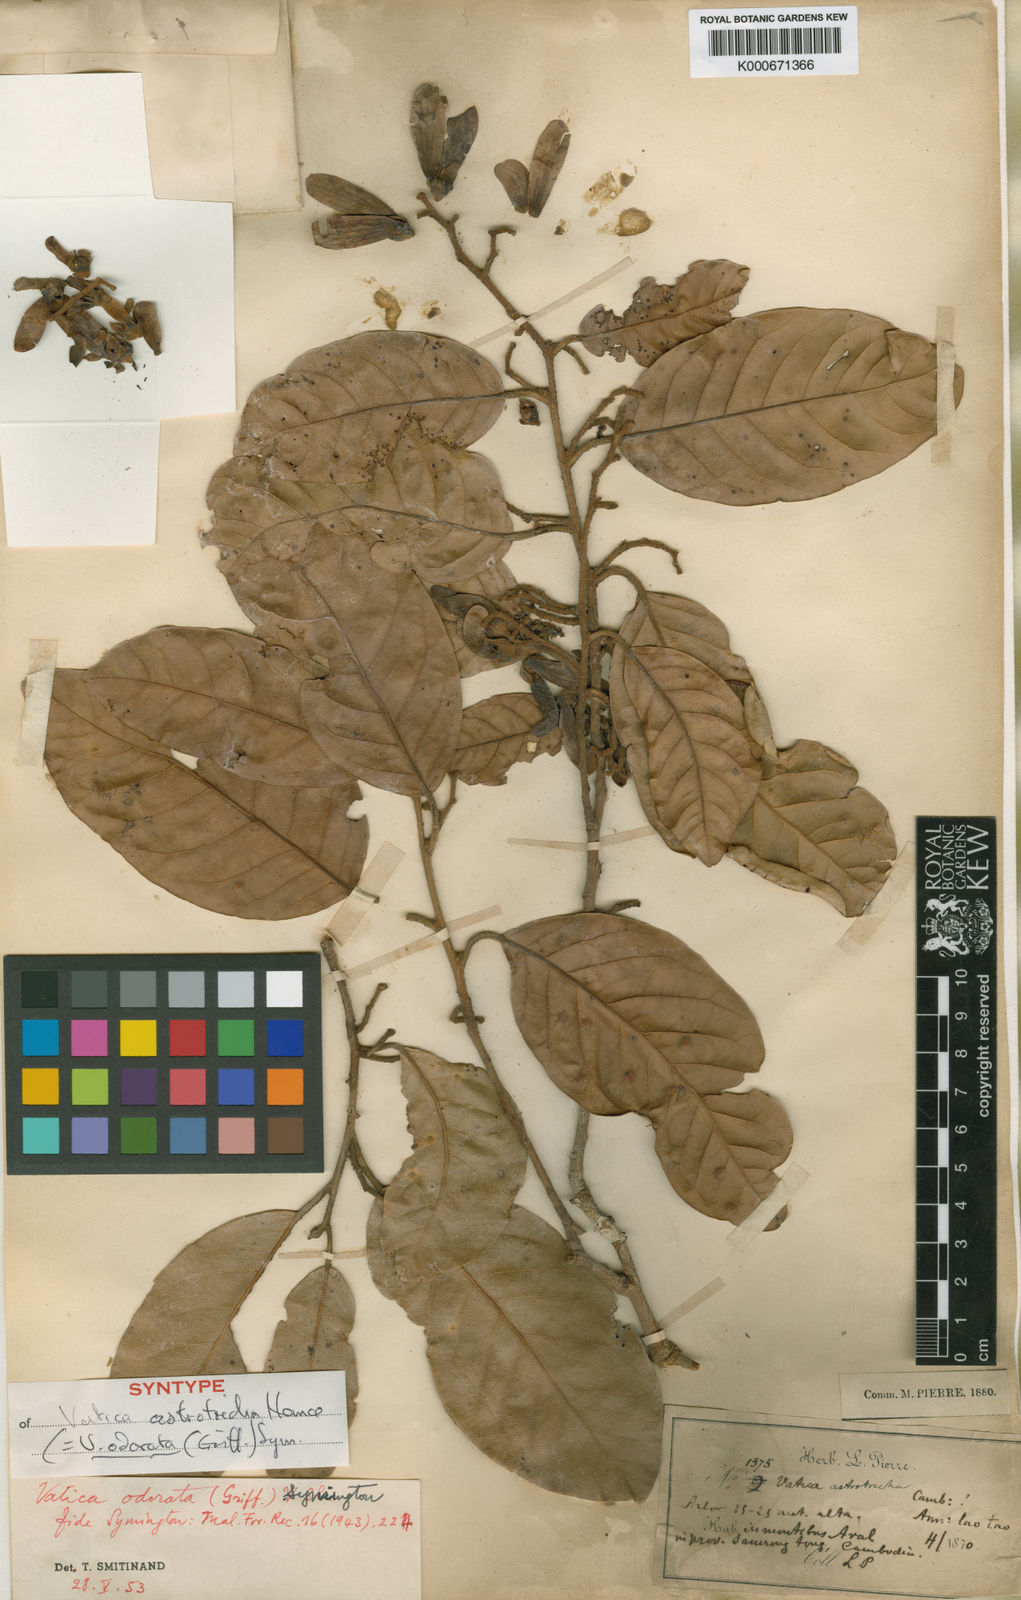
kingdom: Plantae
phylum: Tracheophyta
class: Magnoliopsida
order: Malvales
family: Dipterocarpaceae
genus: Vatica
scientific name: Vatica odorata
